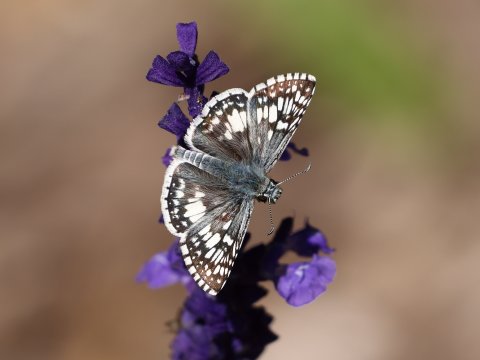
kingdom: Animalia
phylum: Arthropoda
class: Insecta
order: Lepidoptera
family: Hesperiidae
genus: Pyrgus
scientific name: Pyrgus communis
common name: Common Checkered-Skipper
